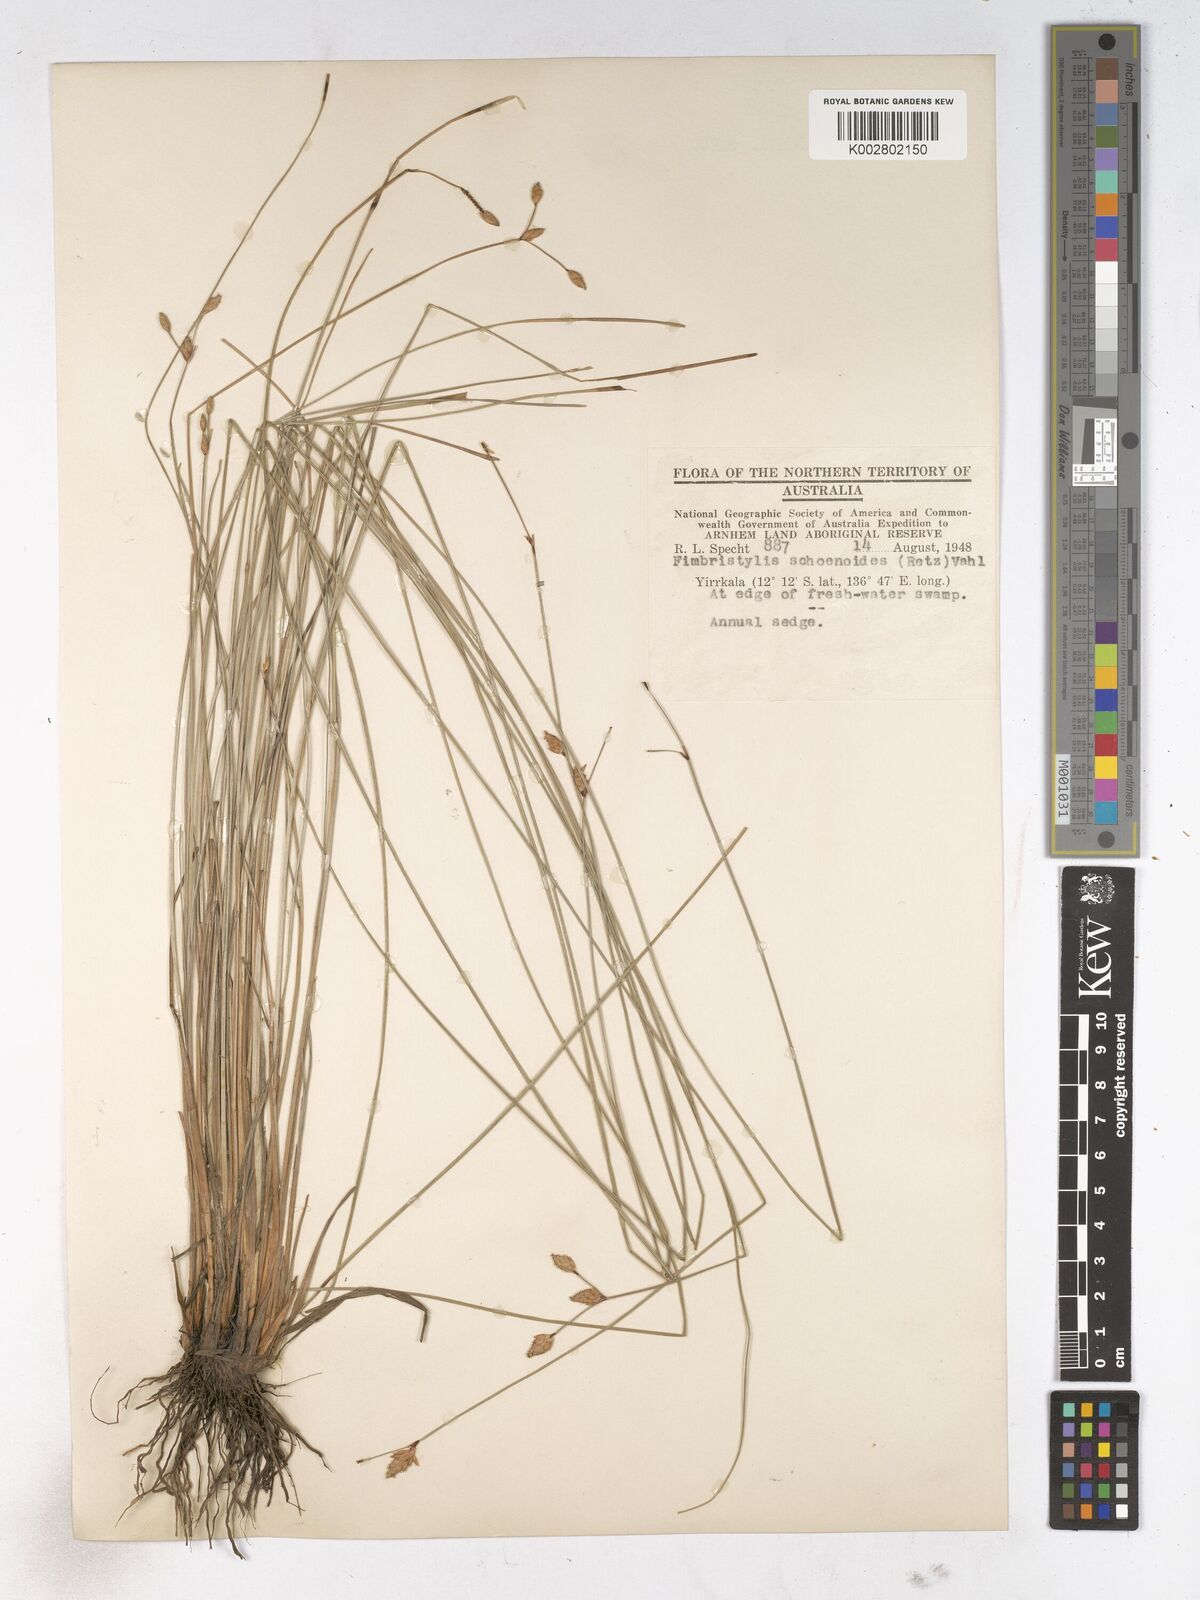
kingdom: Plantae
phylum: Tracheophyta
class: Liliopsida
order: Poales
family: Cyperaceae
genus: Fimbristylis
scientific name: Fimbristylis schoenoides
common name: Ditch fimbry
